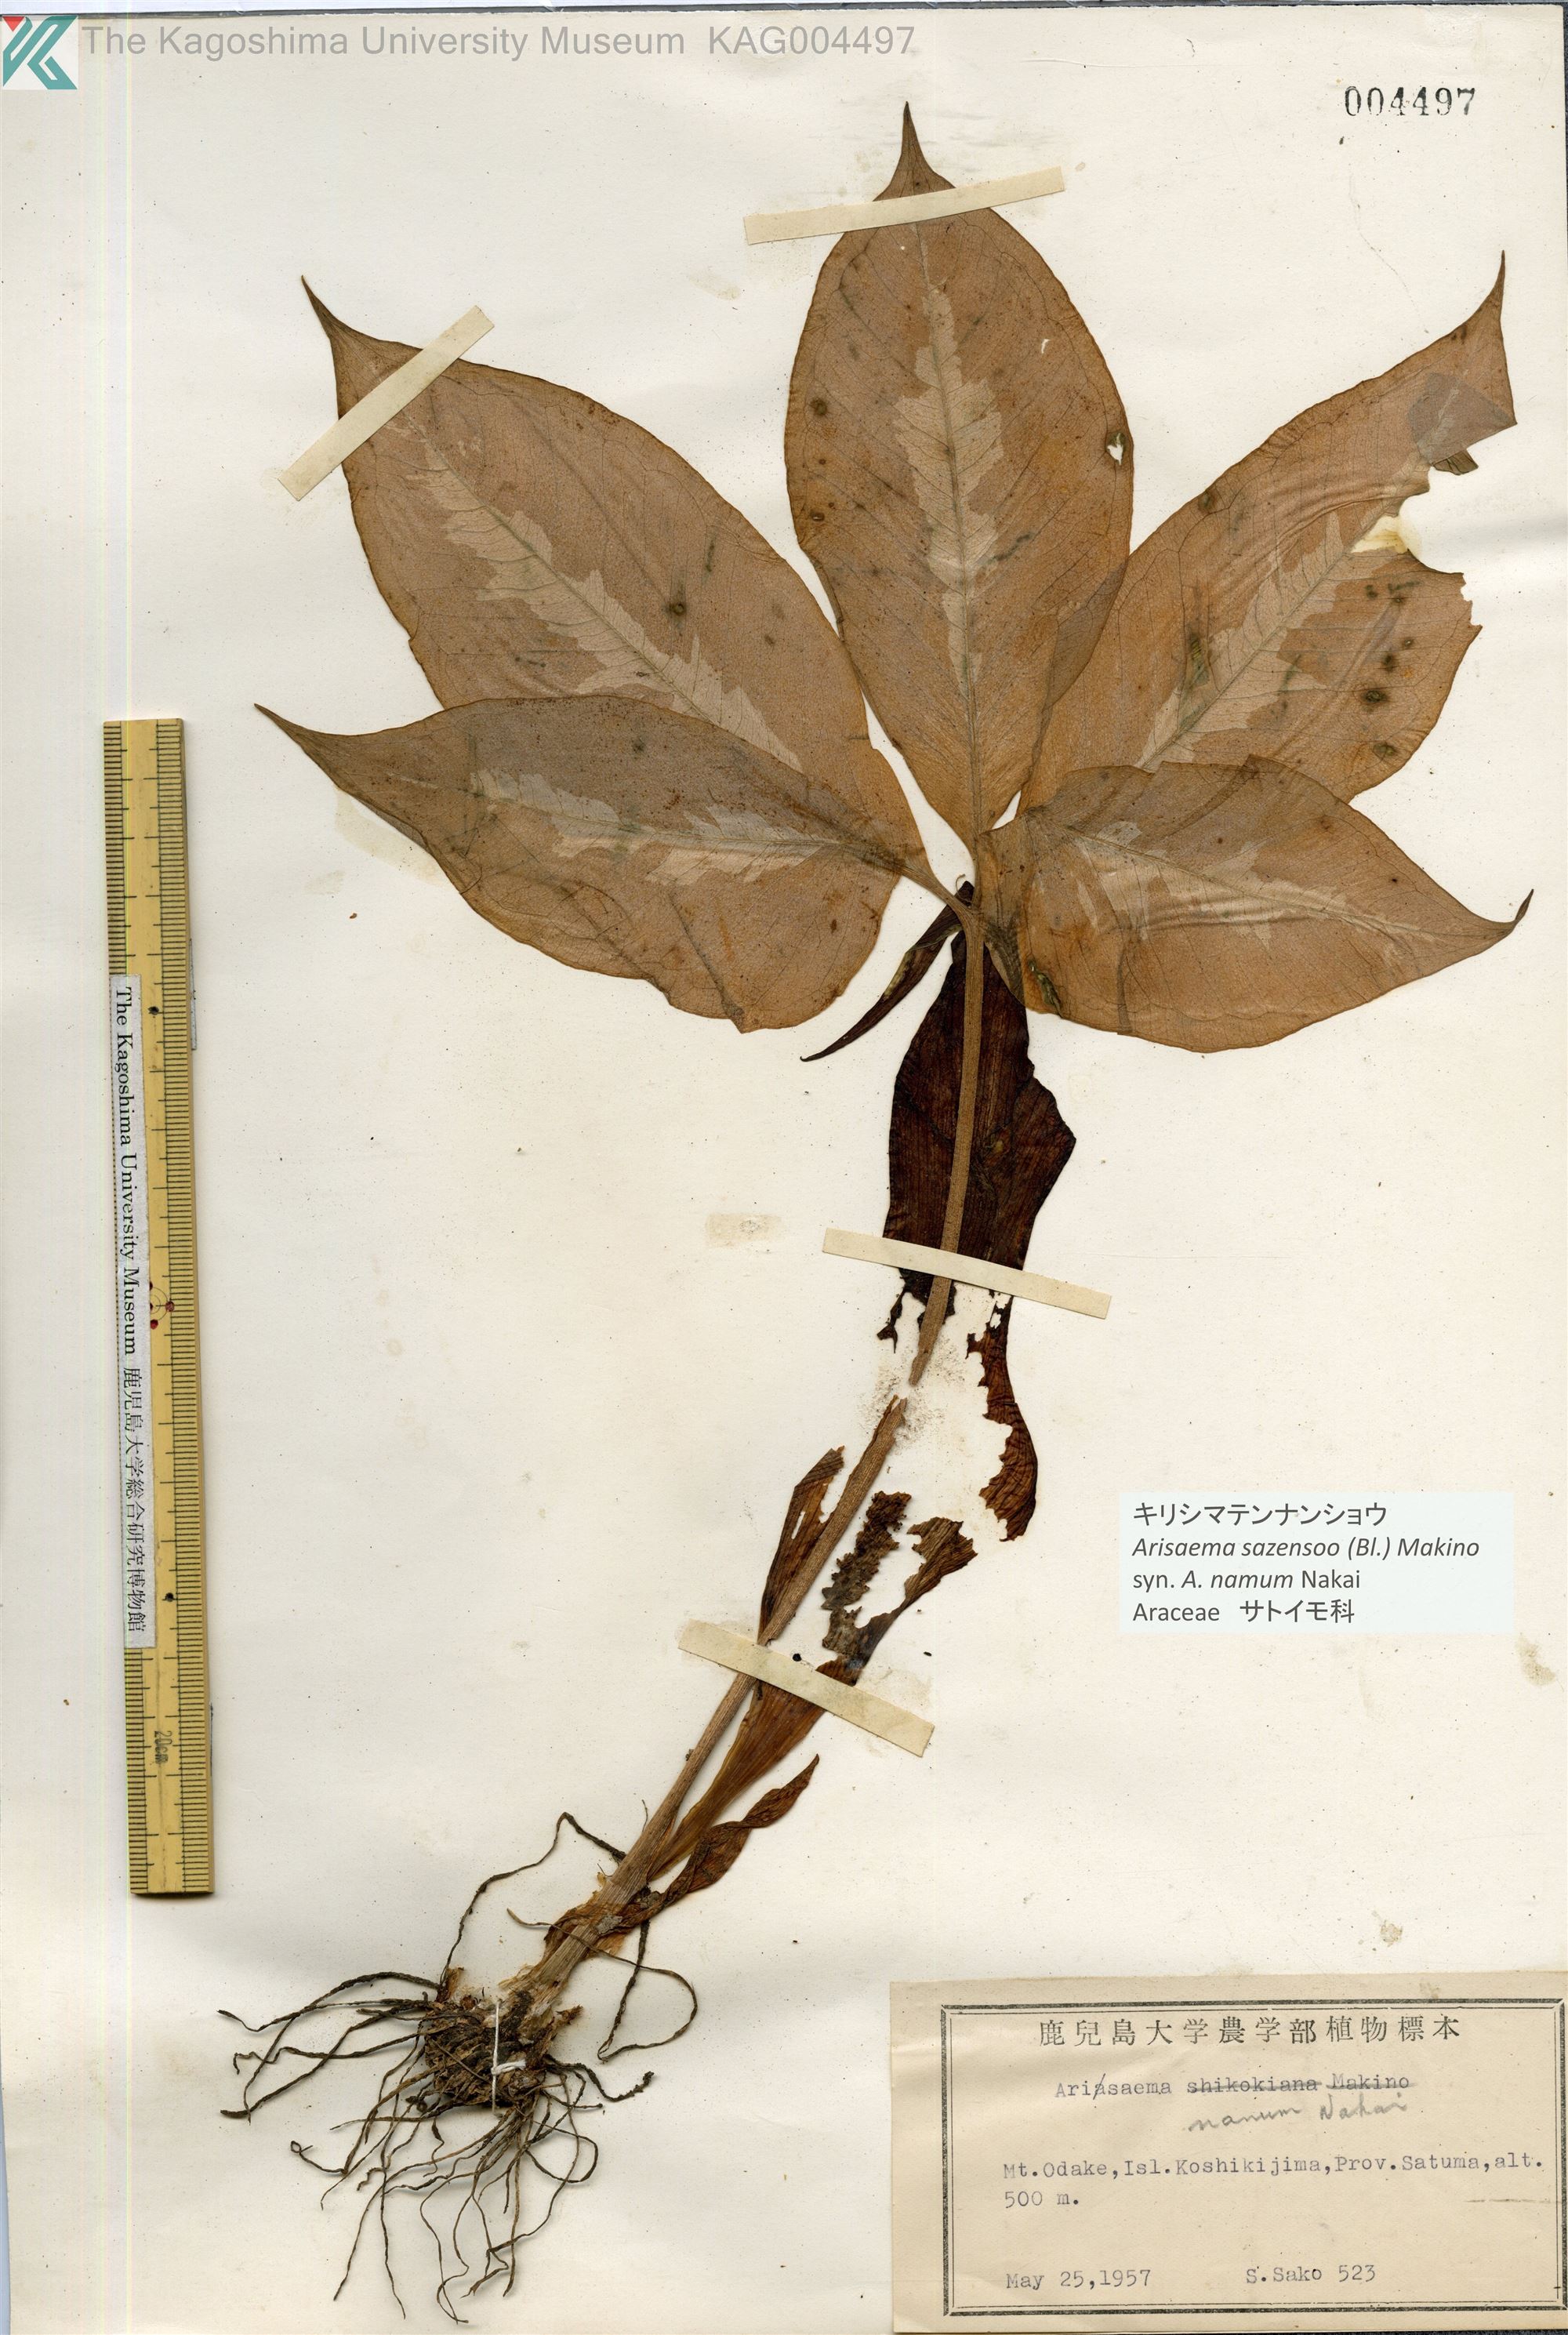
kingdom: Plantae
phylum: Tracheophyta
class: Liliopsida
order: Alismatales
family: Araceae
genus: Arisaema
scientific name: Arisaema sazensoo
